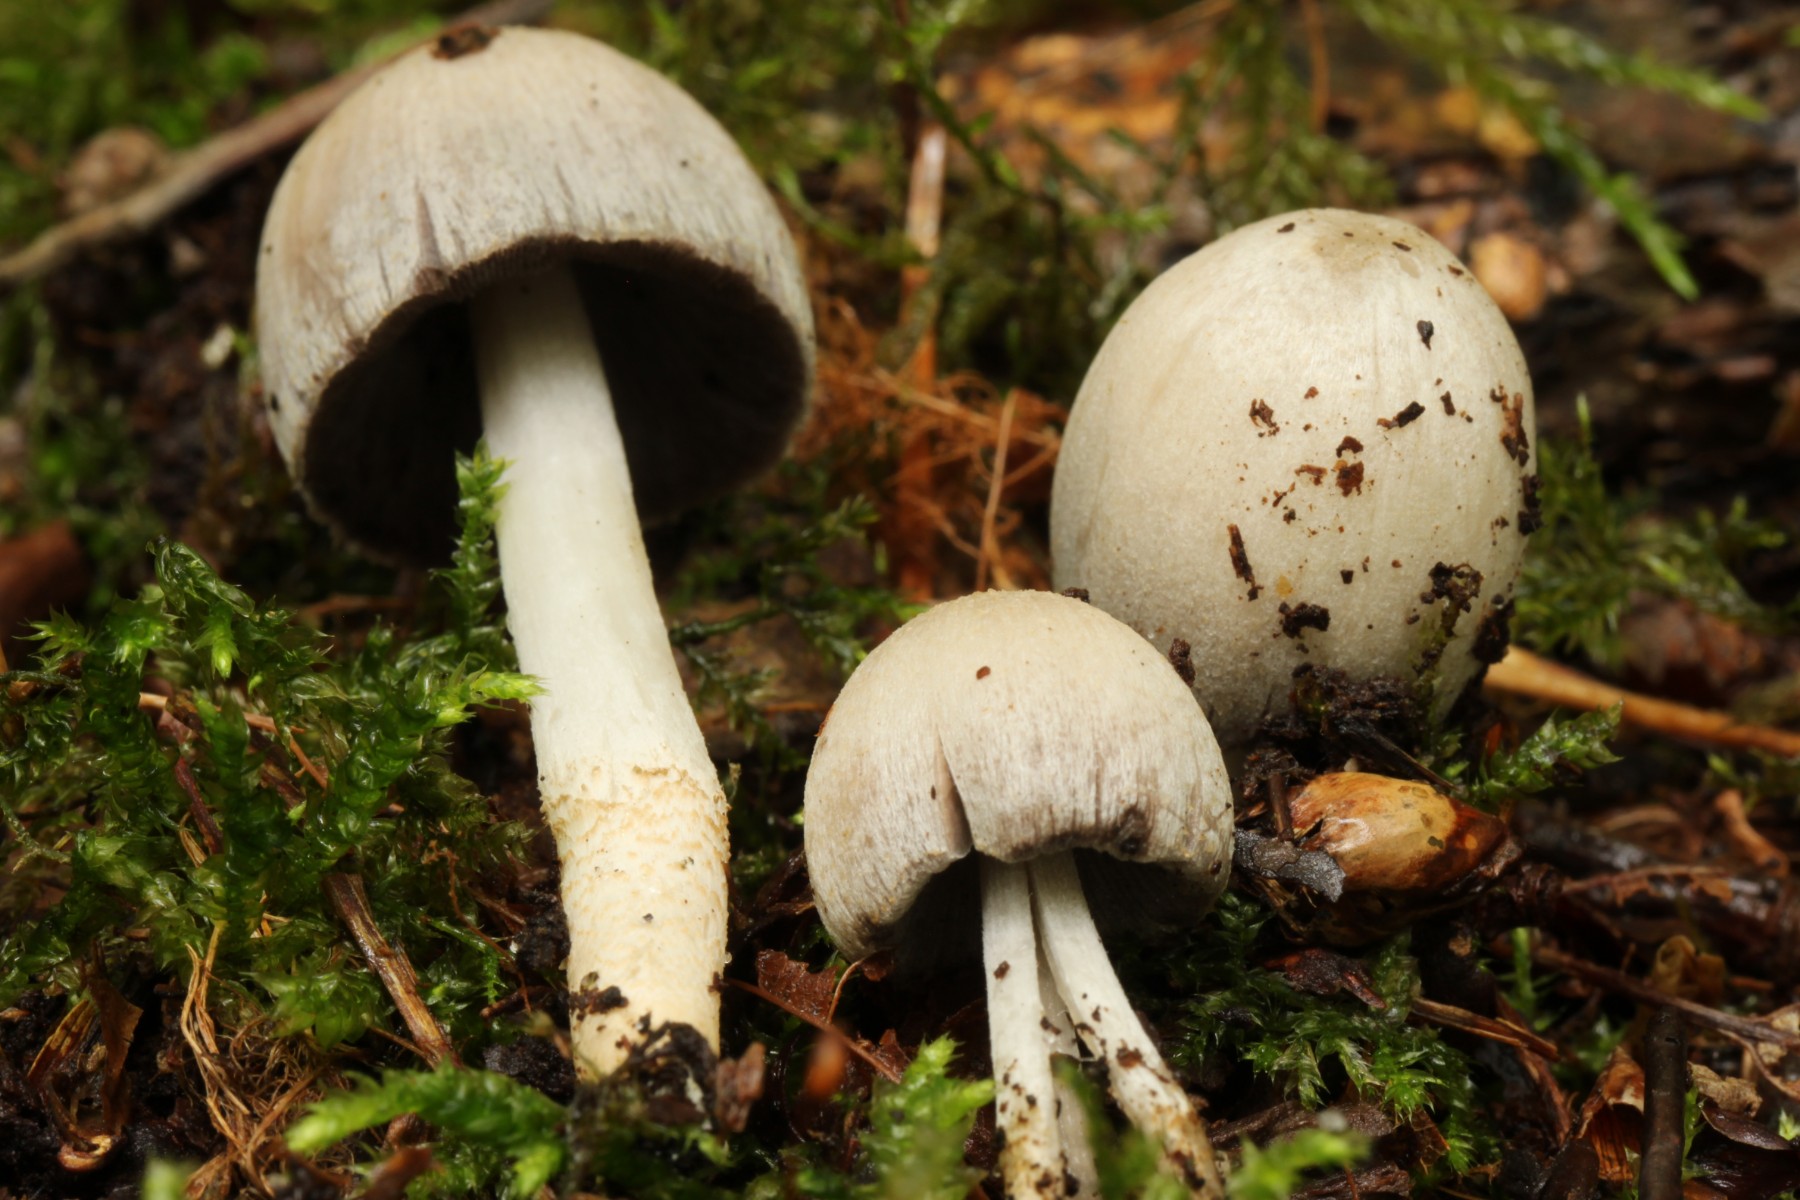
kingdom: Fungi
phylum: Basidiomycota
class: Agaricomycetes
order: Agaricales
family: Psathyrellaceae
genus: Coprinopsis
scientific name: Coprinopsis atramentaria
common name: almindelig blækhat
